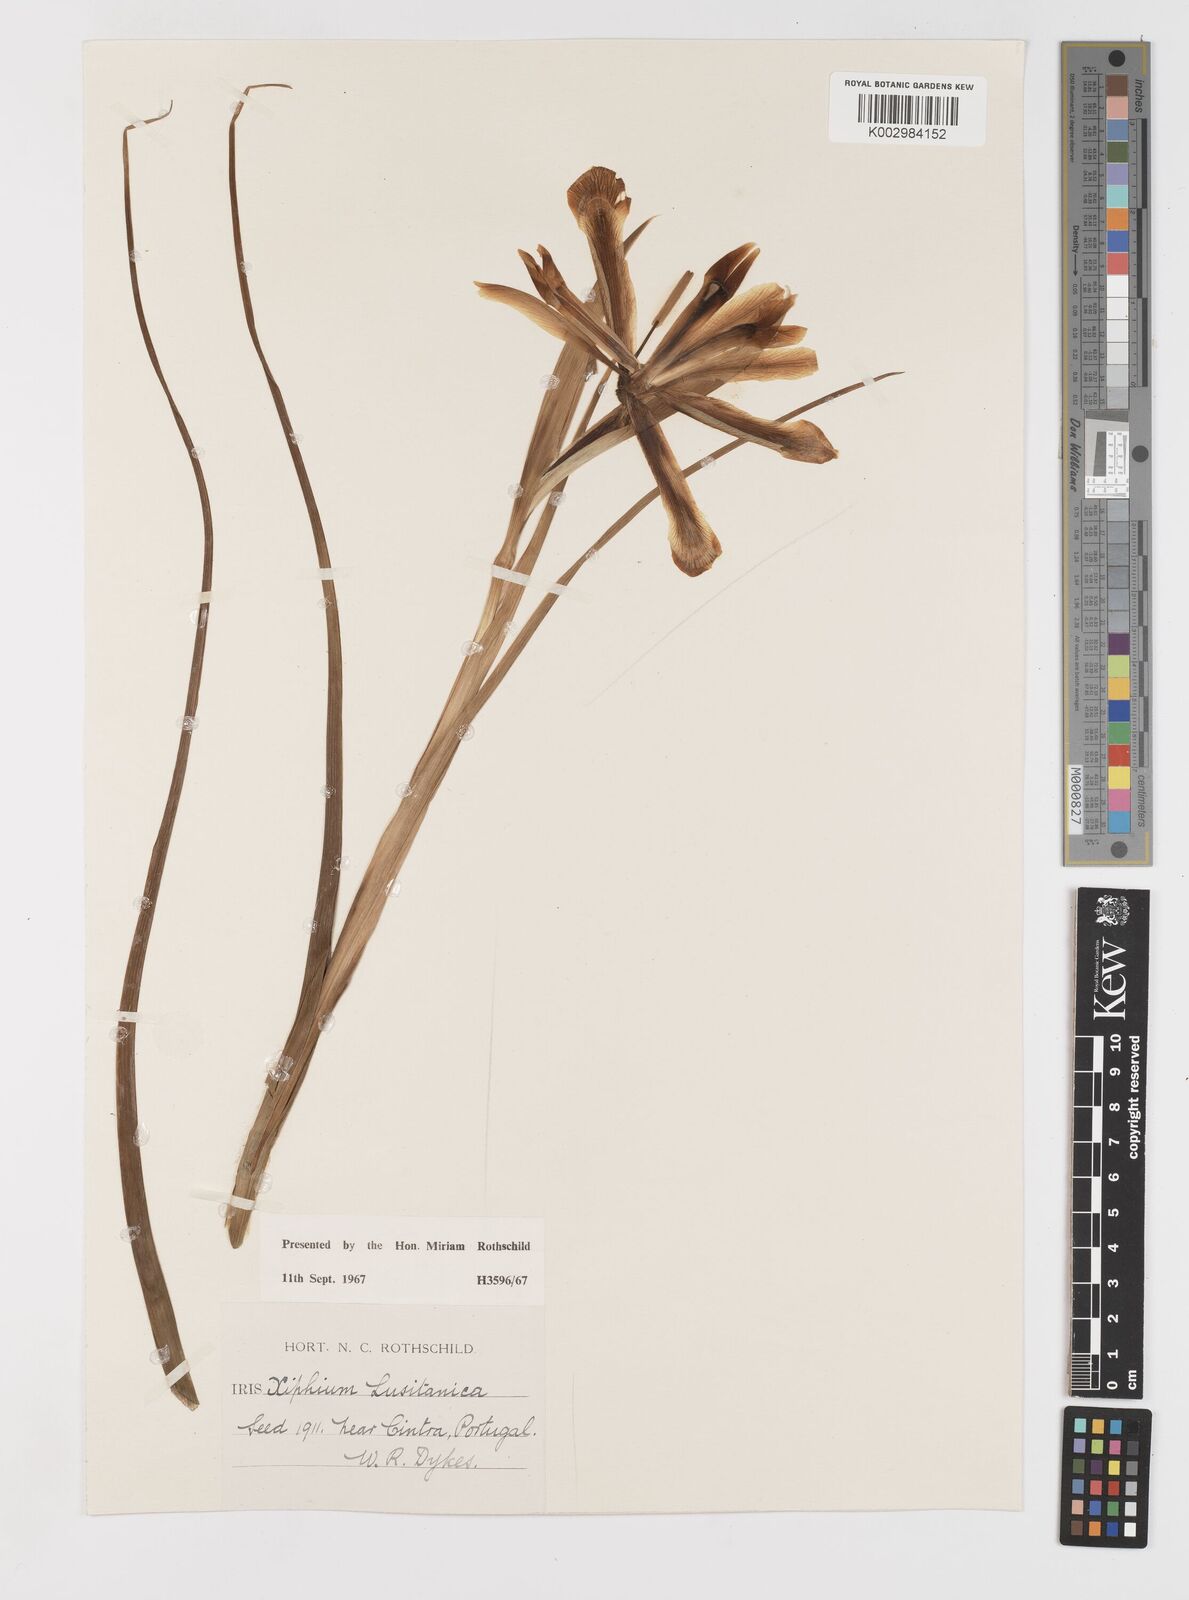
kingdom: Plantae
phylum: Tracheophyta
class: Liliopsida
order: Asparagales
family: Iridaceae
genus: Iris
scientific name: Iris xiphium
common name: Spanish iris
